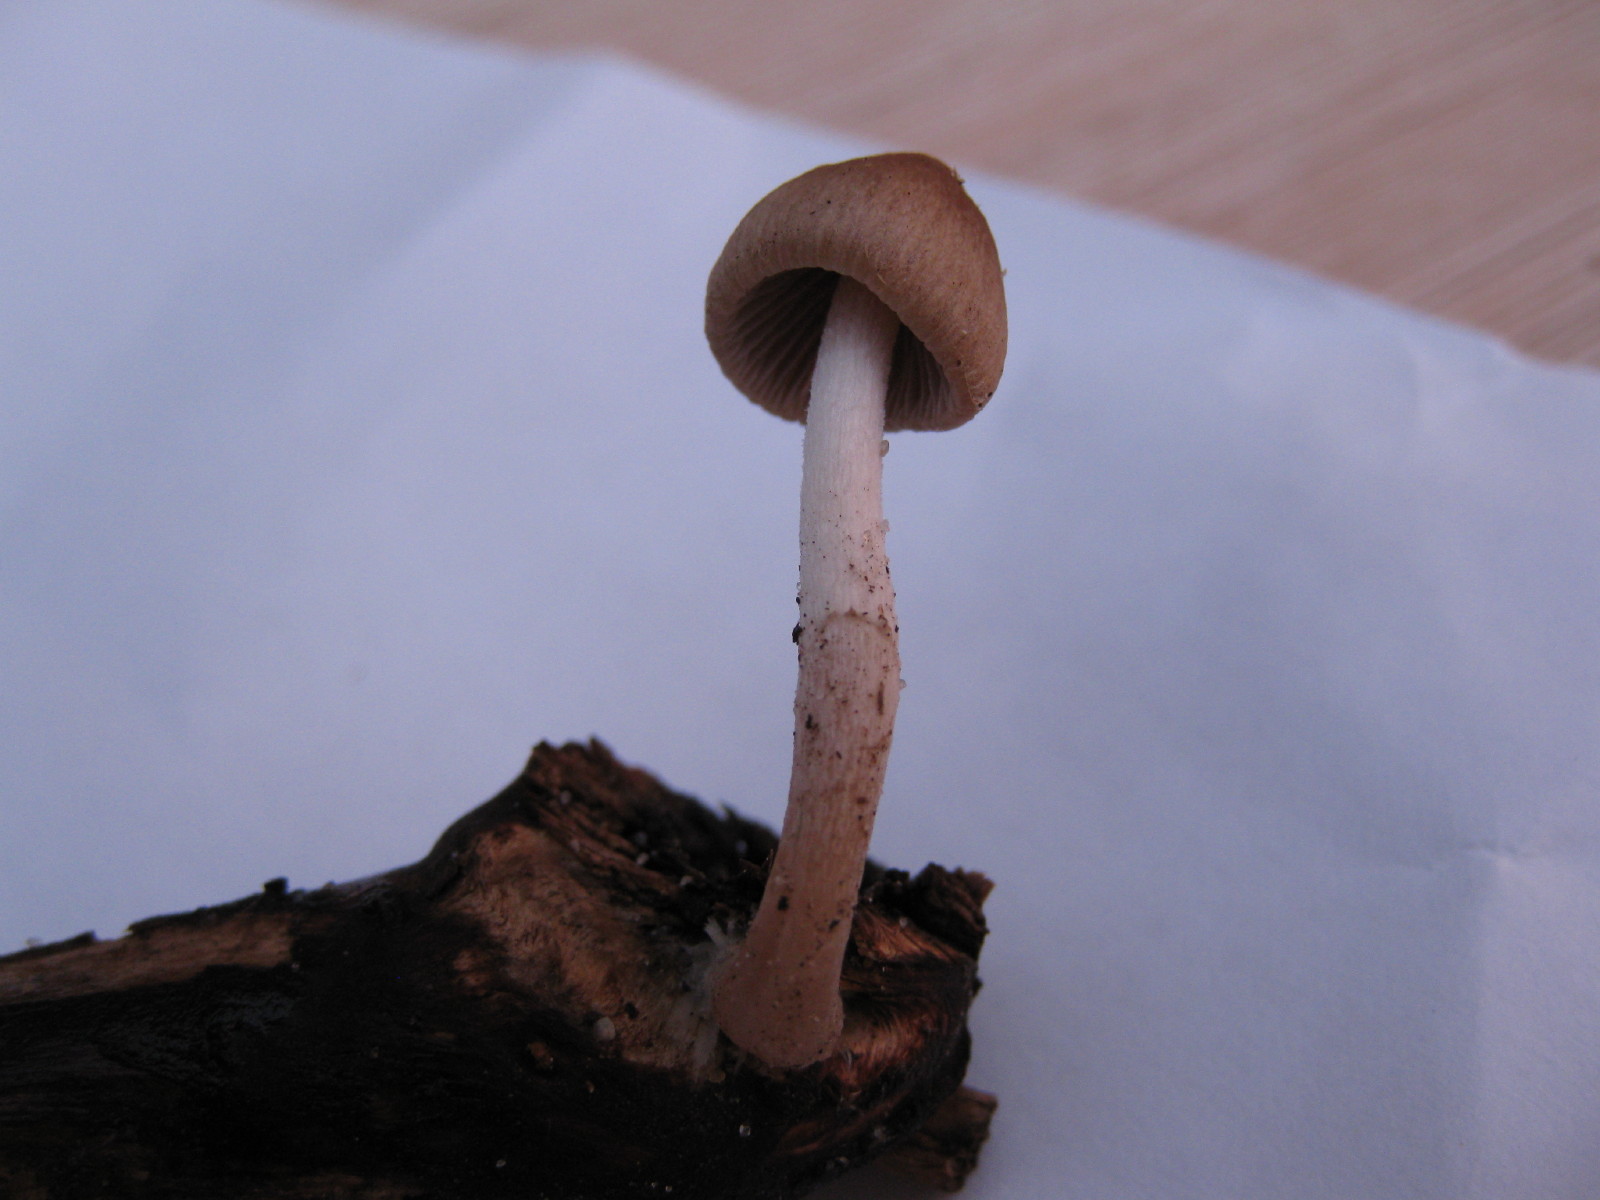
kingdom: Fungi
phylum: Basidiomycota
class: Agaricomycetes
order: Agaricales
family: Psathyrellaceae
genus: Psathyrella
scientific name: Psathyrella lutensis
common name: hjulspor-mørkhat
